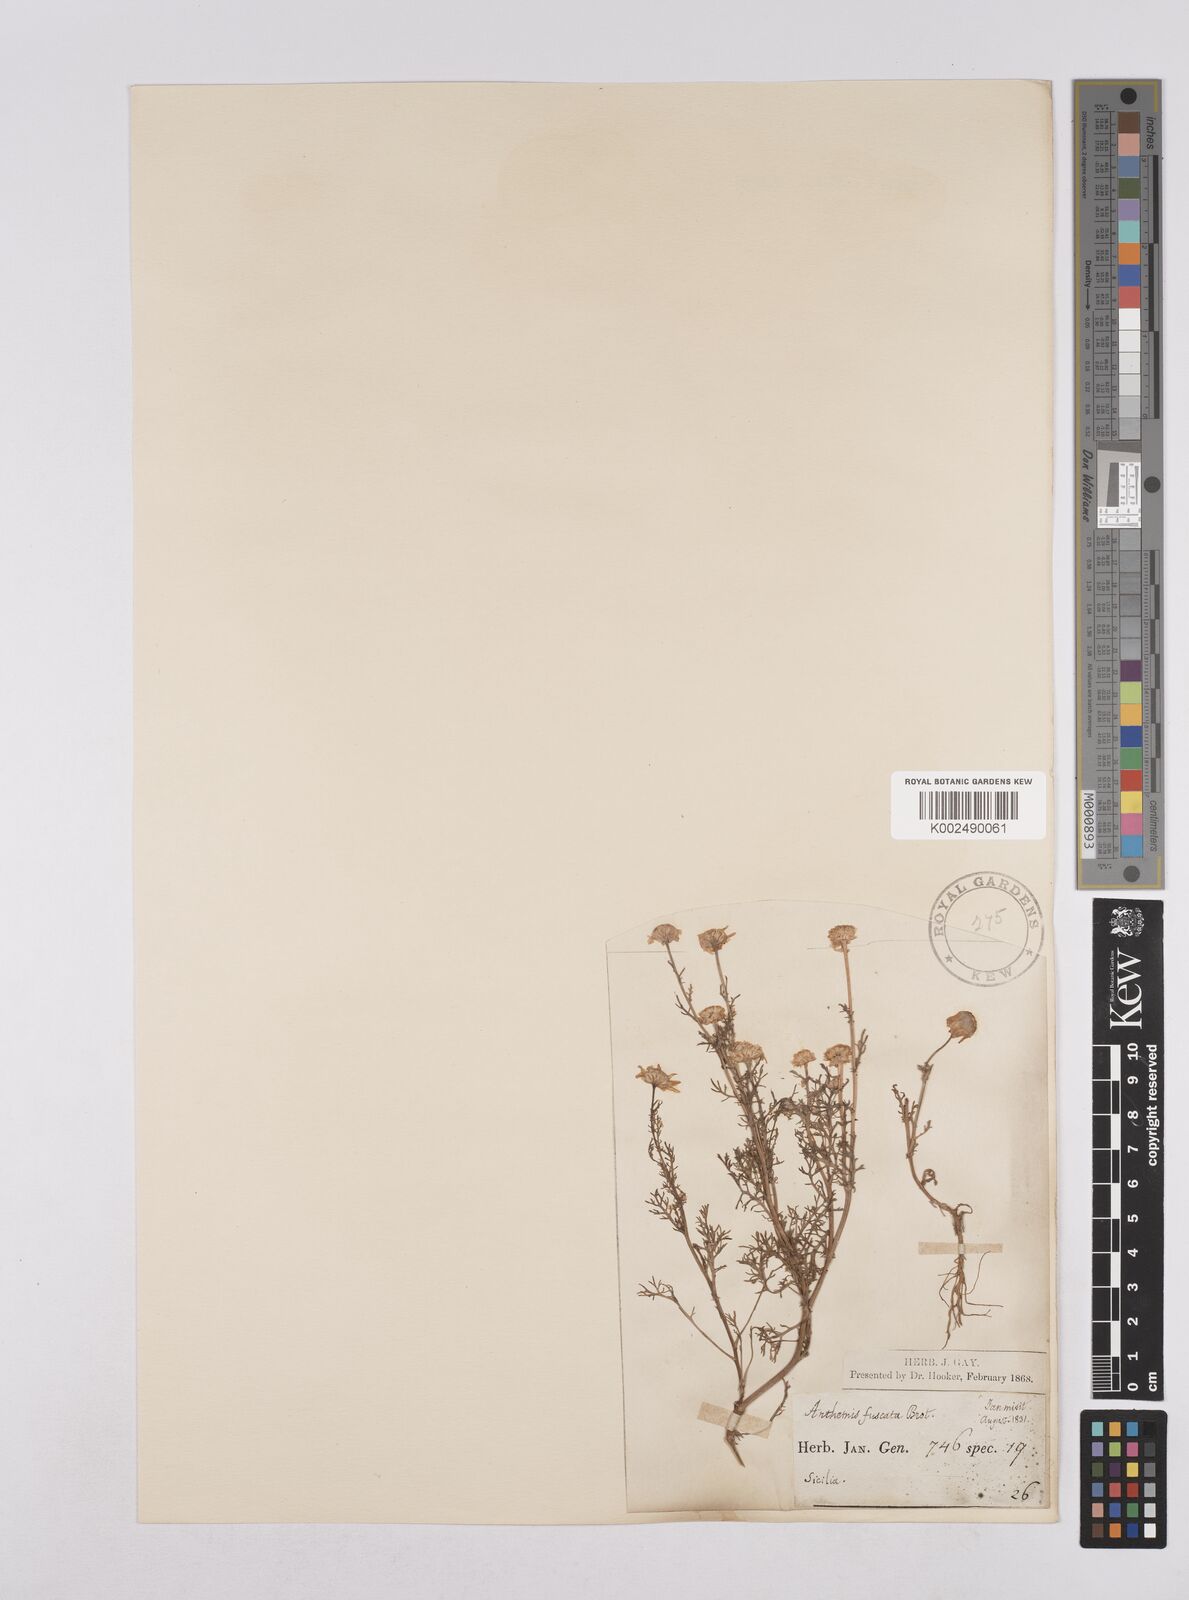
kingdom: Plantae
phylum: Tracheophyta
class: Magnoliopsida
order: Asterales
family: Asteraceae
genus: Chamaemelum
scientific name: Chamaemelum fuscatum
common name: Chamomile
